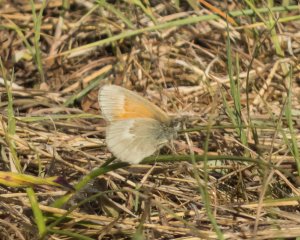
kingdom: Animalia
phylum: Arthropoda
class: Insecta
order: Lepidoptera
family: Nymphalidae
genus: Coenonympha
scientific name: Coenonympha tullia
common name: Large Heath
